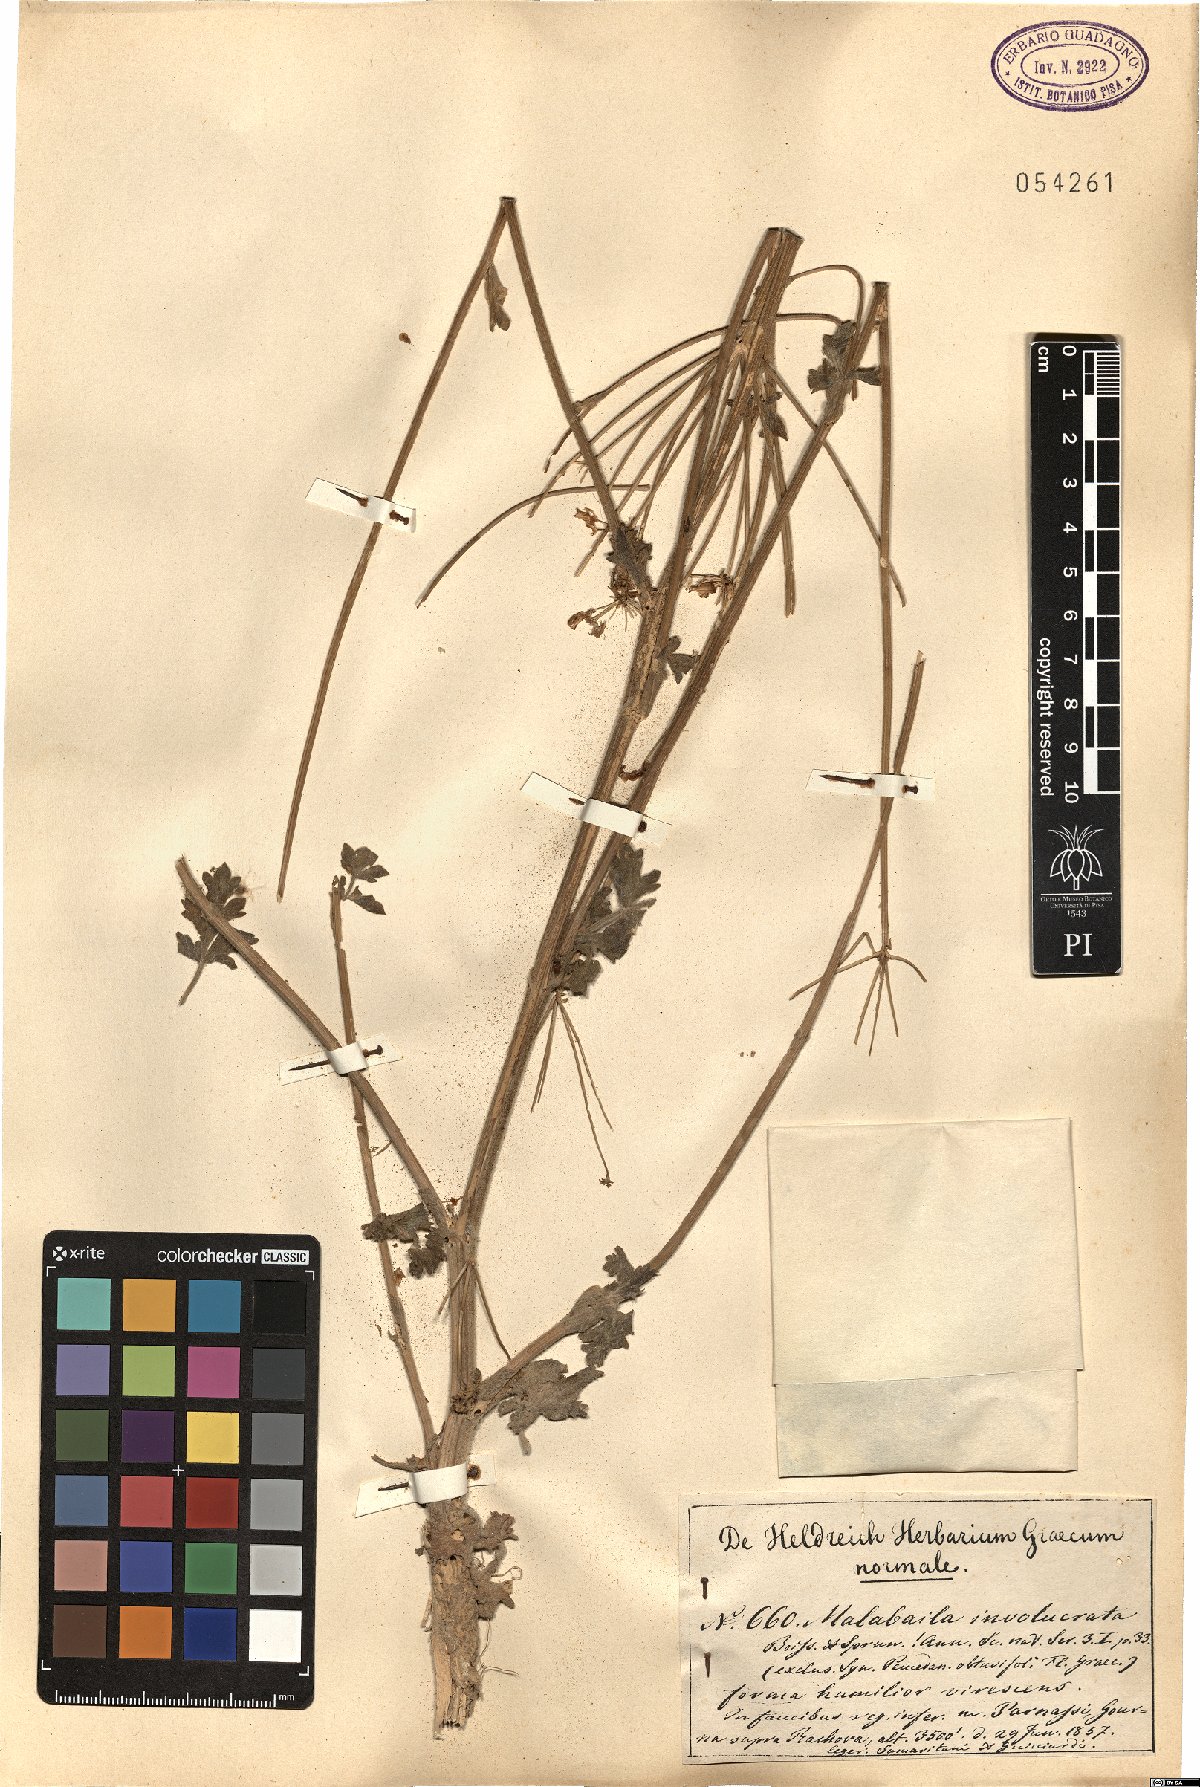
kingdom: Plantae
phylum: Tracheophyta
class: Magnoliopsida
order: Apiales
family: Apiaceae
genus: Leiotulus
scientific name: Leiotulus involucratus
